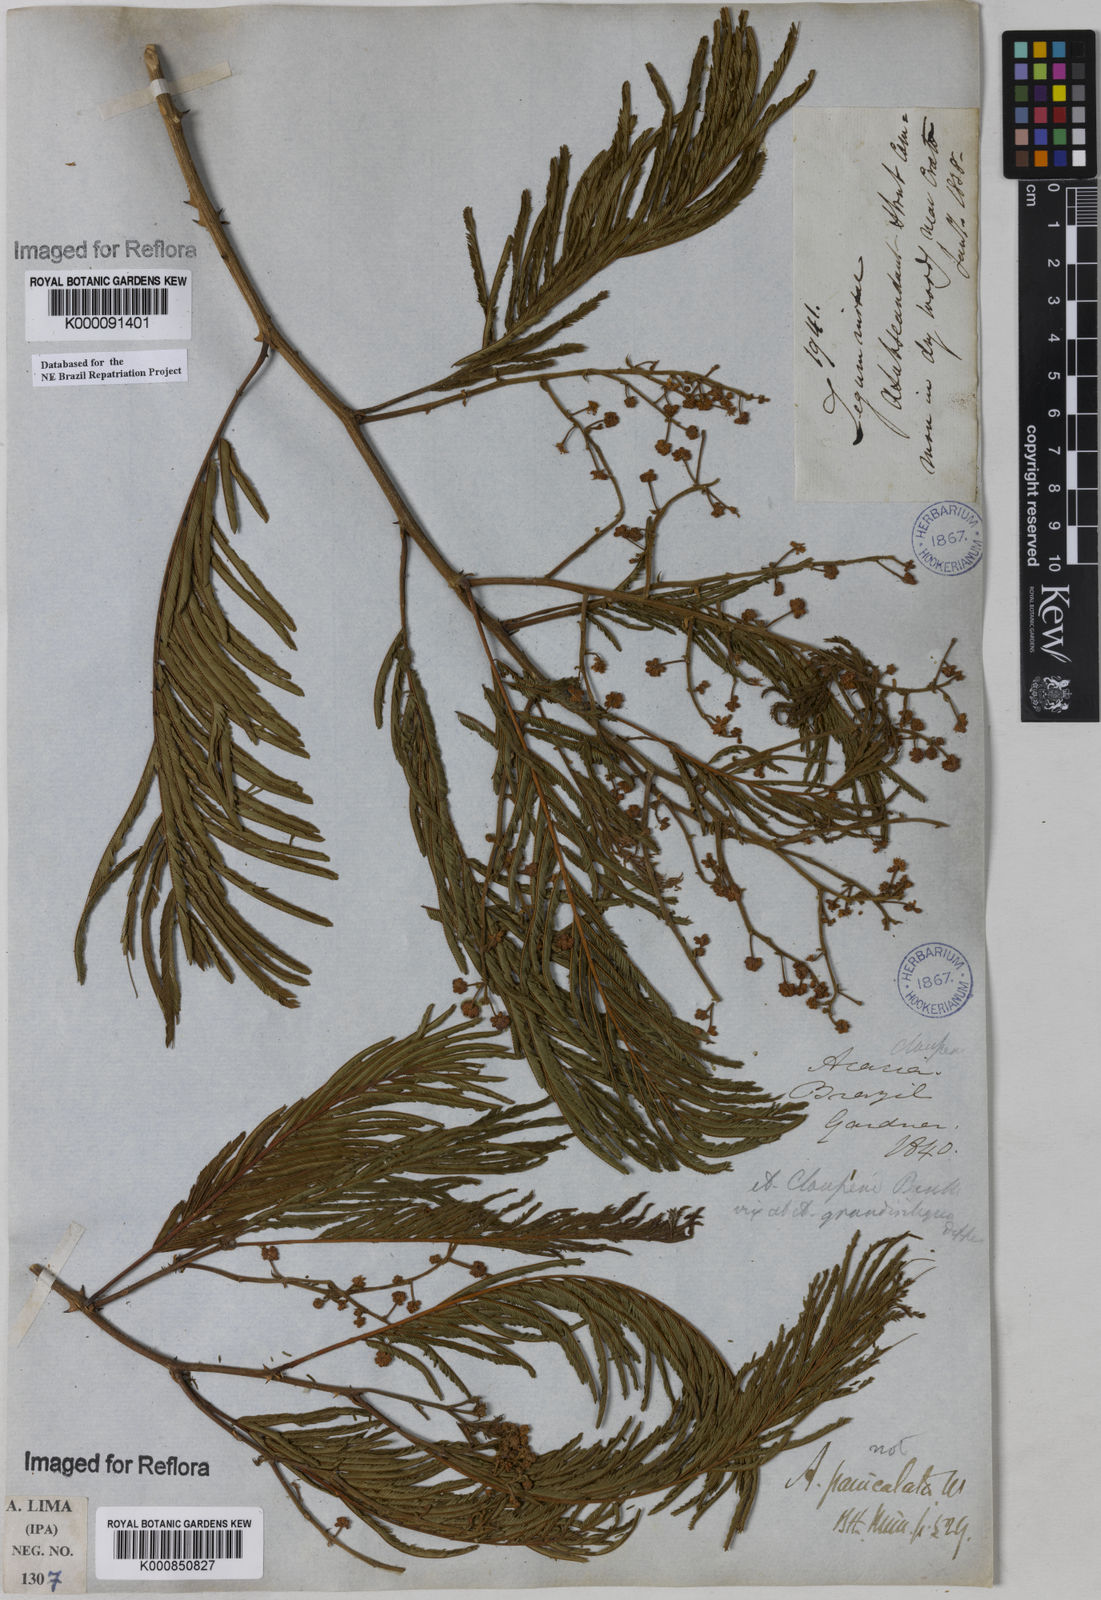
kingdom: Plantae
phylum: Tracheophyta
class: Magnoliopsida
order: Fabales
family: Fabaceae
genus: Senegalia
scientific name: Senegalia tenuifolia
